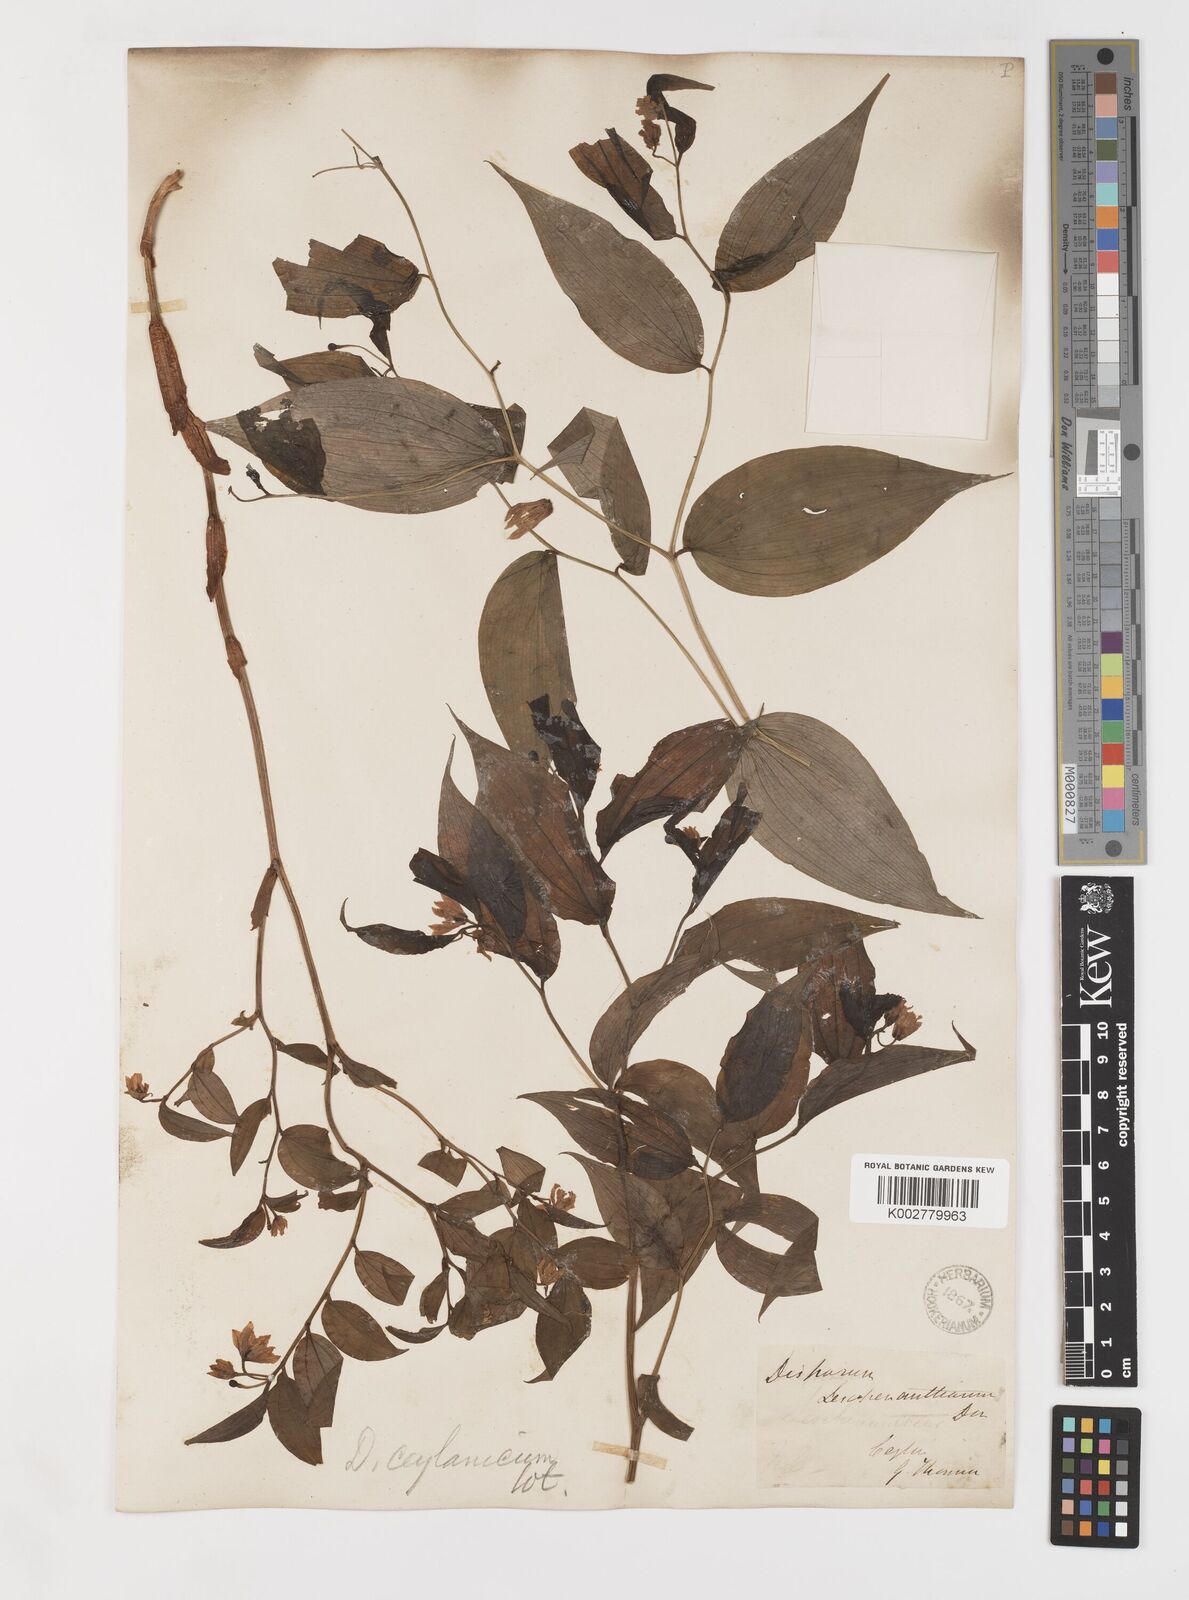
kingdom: Plantae
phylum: Tracheophyta
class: Liliopsida
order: Liliales
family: Colchicaceae
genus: Disporum
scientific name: Disporum cantoniense
